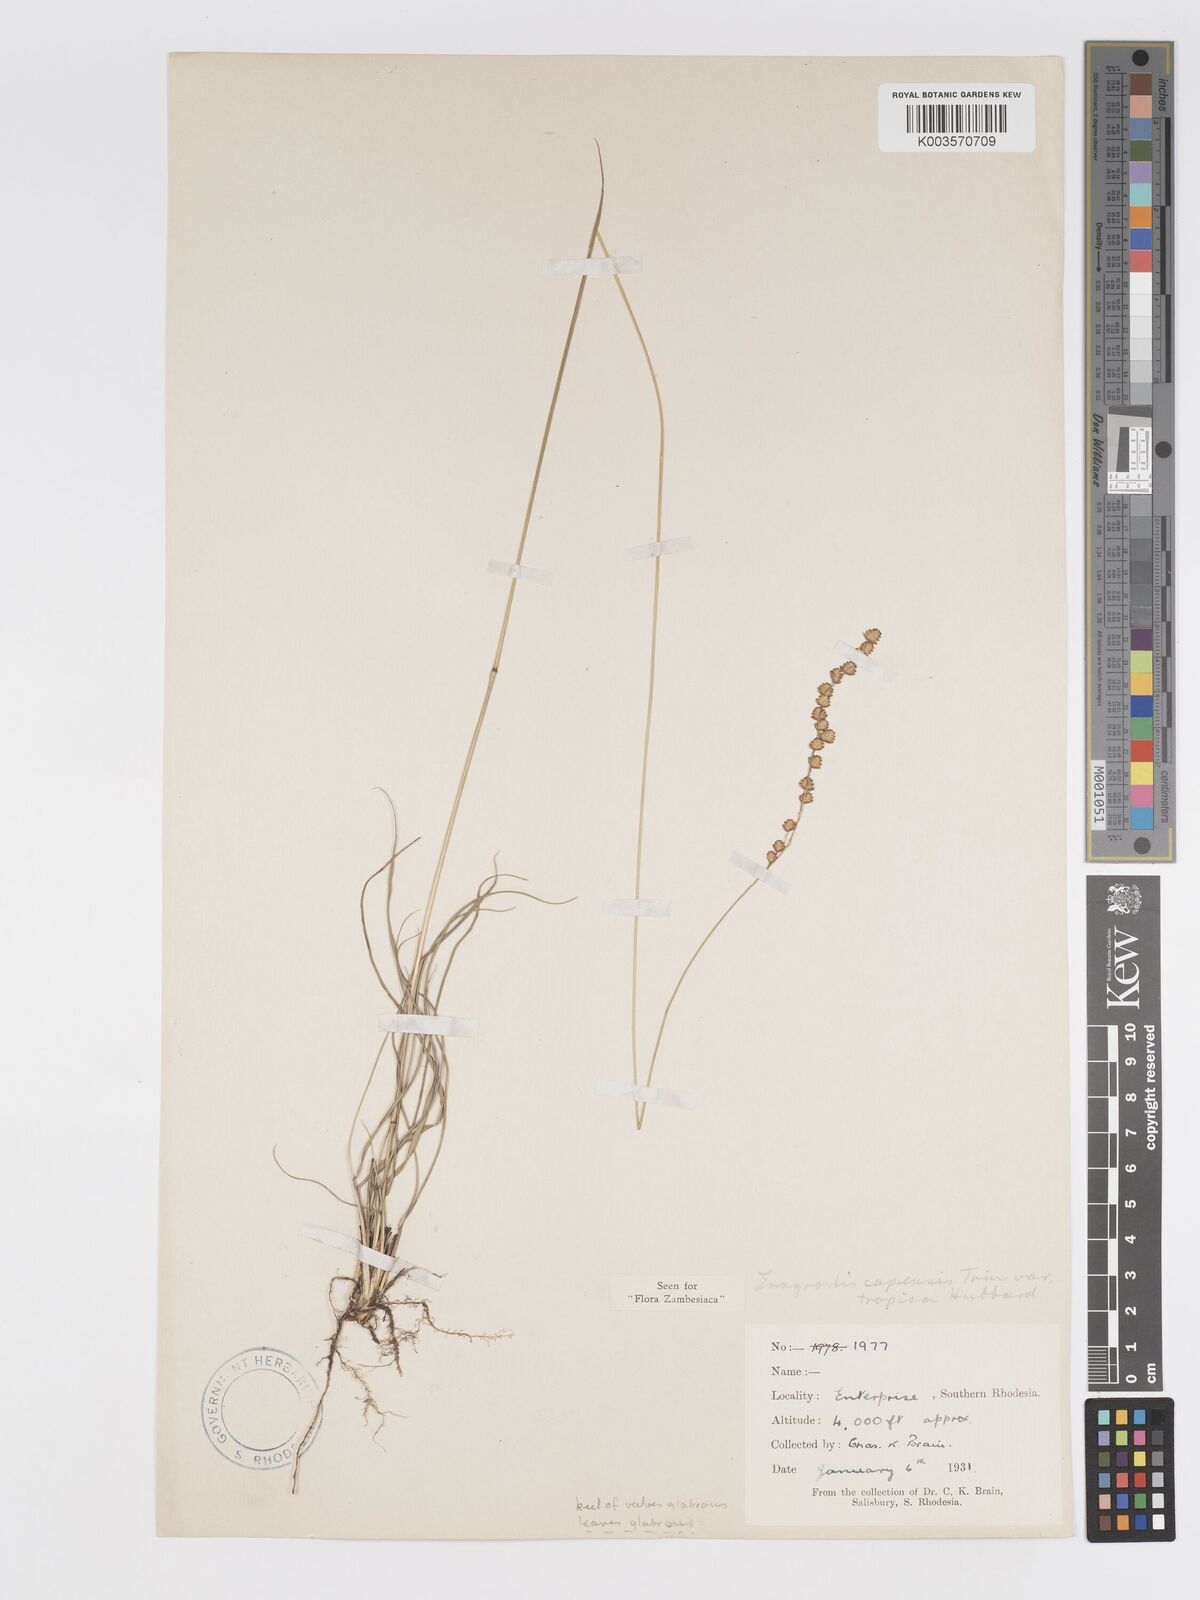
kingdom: Plantae
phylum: Tracheophyta
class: Liliopsida
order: Poales
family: Poaceae
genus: Eragrostis
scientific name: Eragrostis capensis
